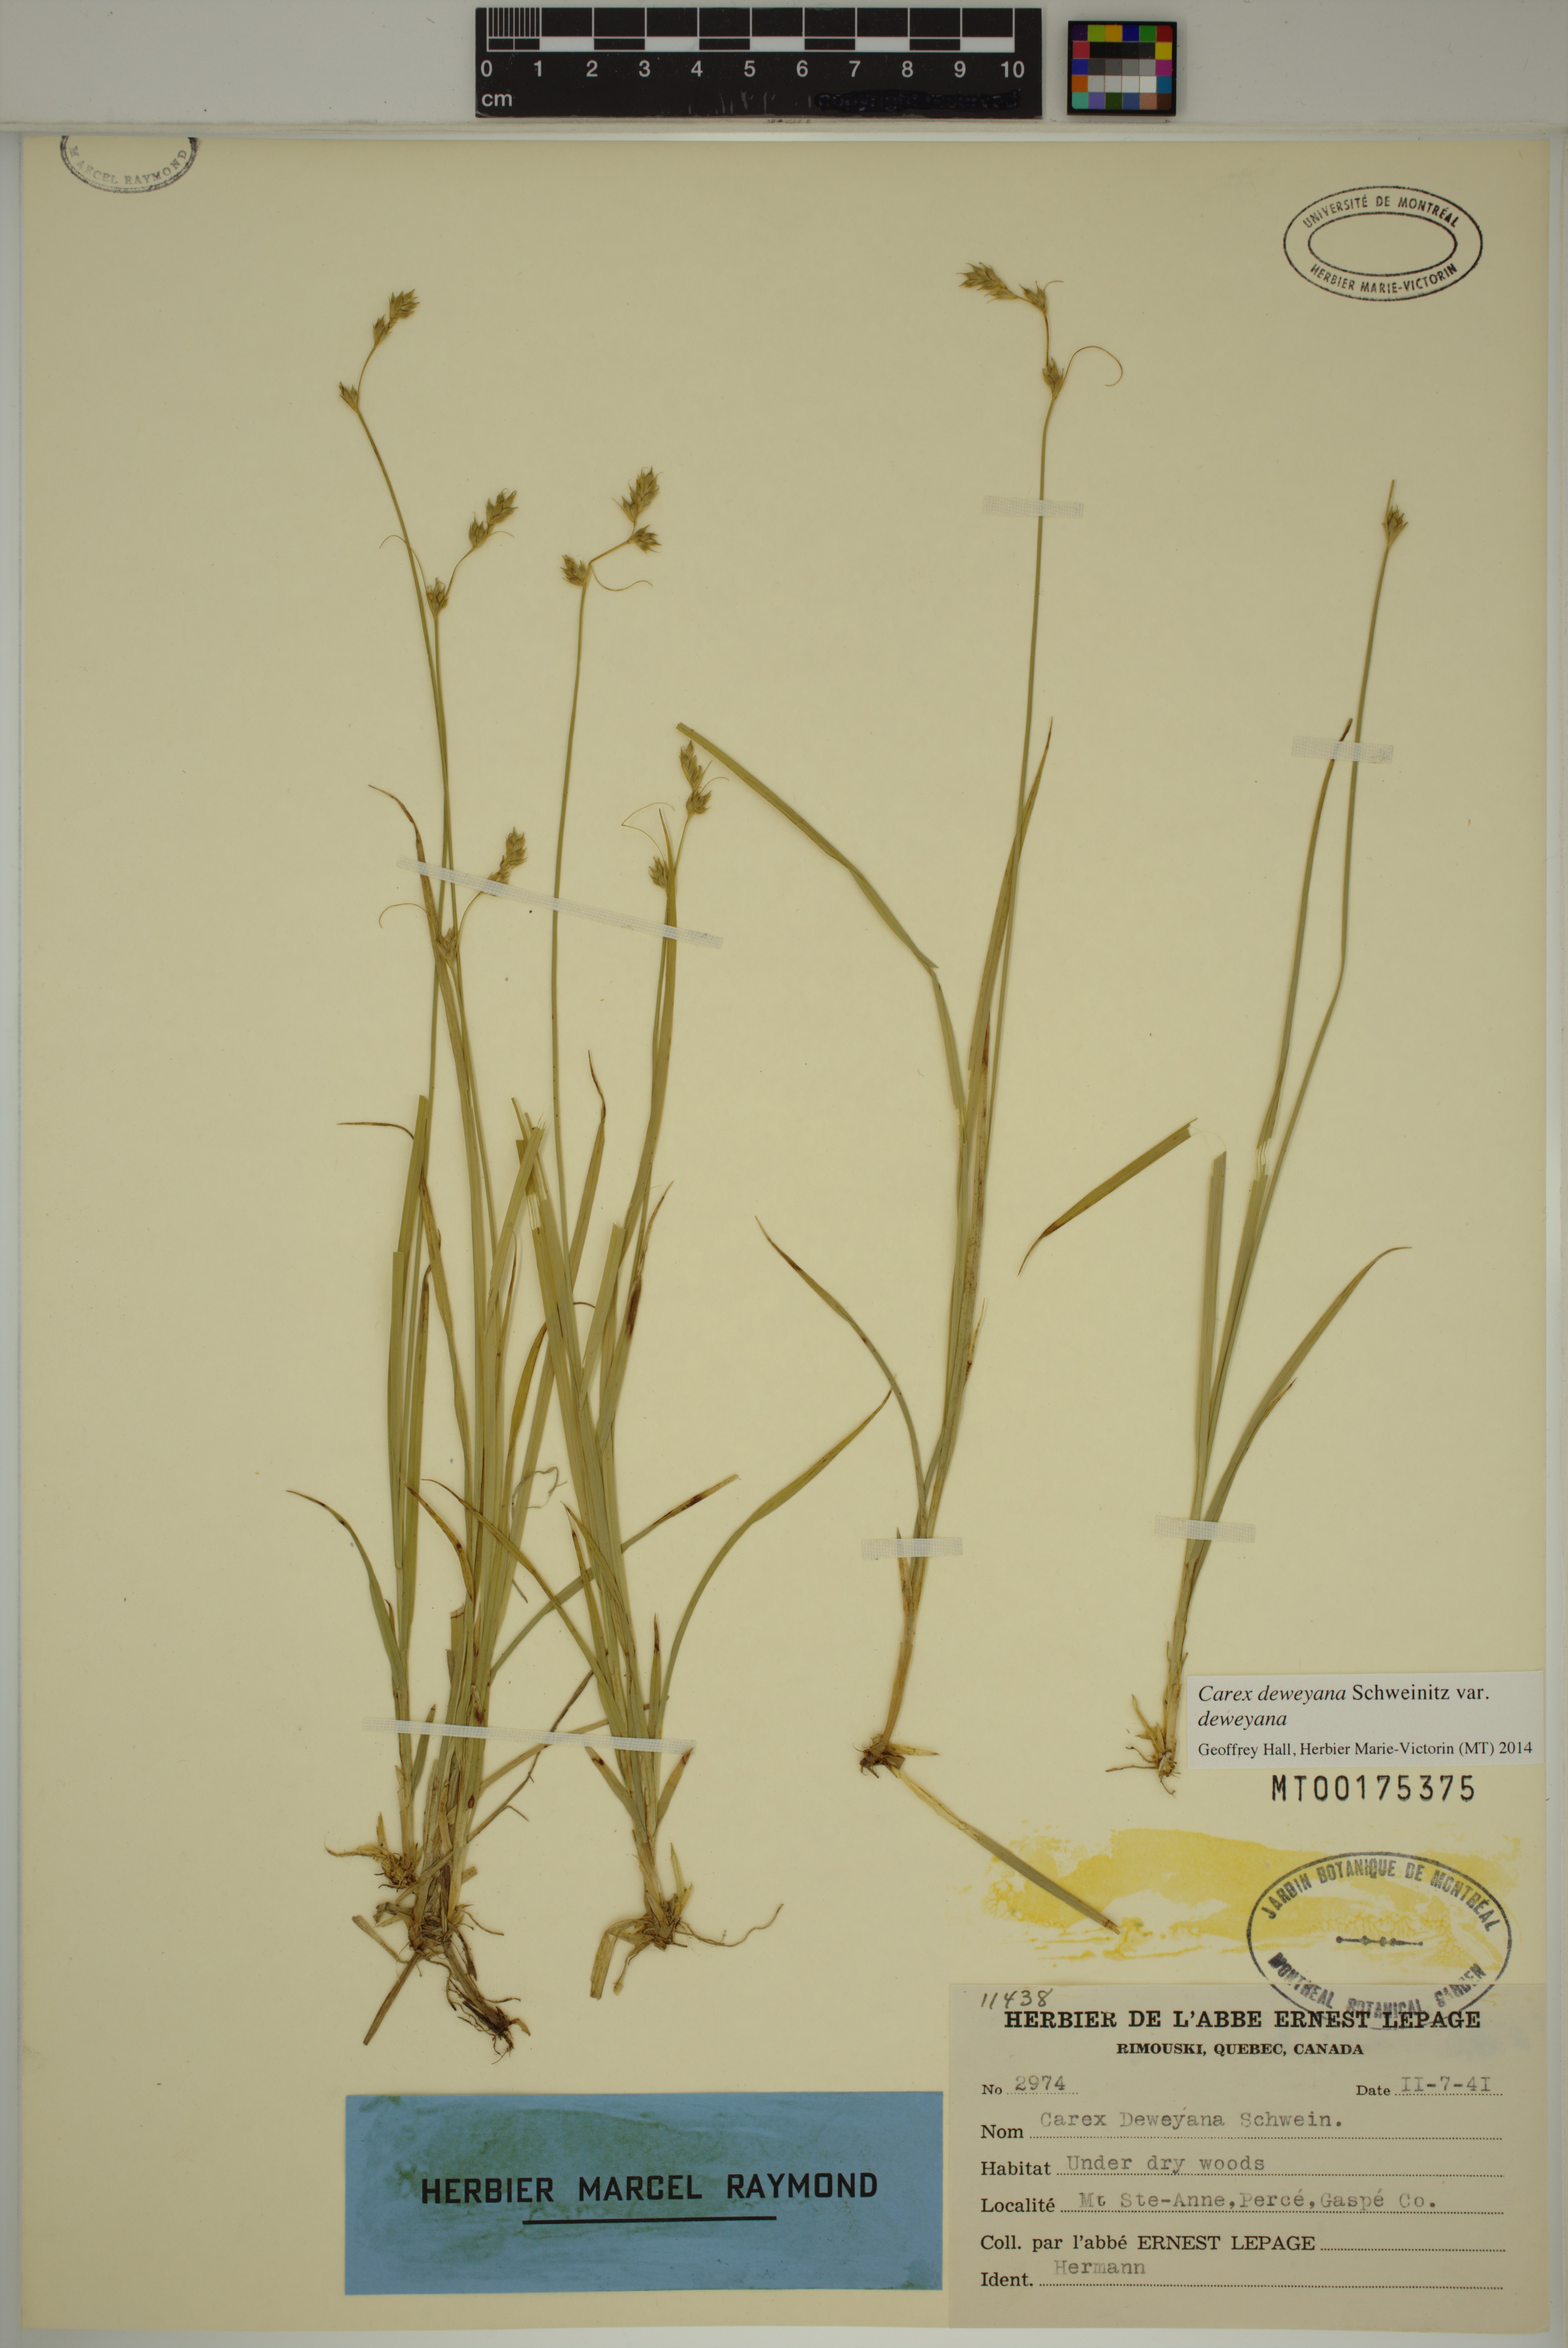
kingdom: Plantae
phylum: Tracheophyta
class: Liliopsida
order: Poales
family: Cyperaceae
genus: Carex
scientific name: Carex deweyana
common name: Dewey's sedge
